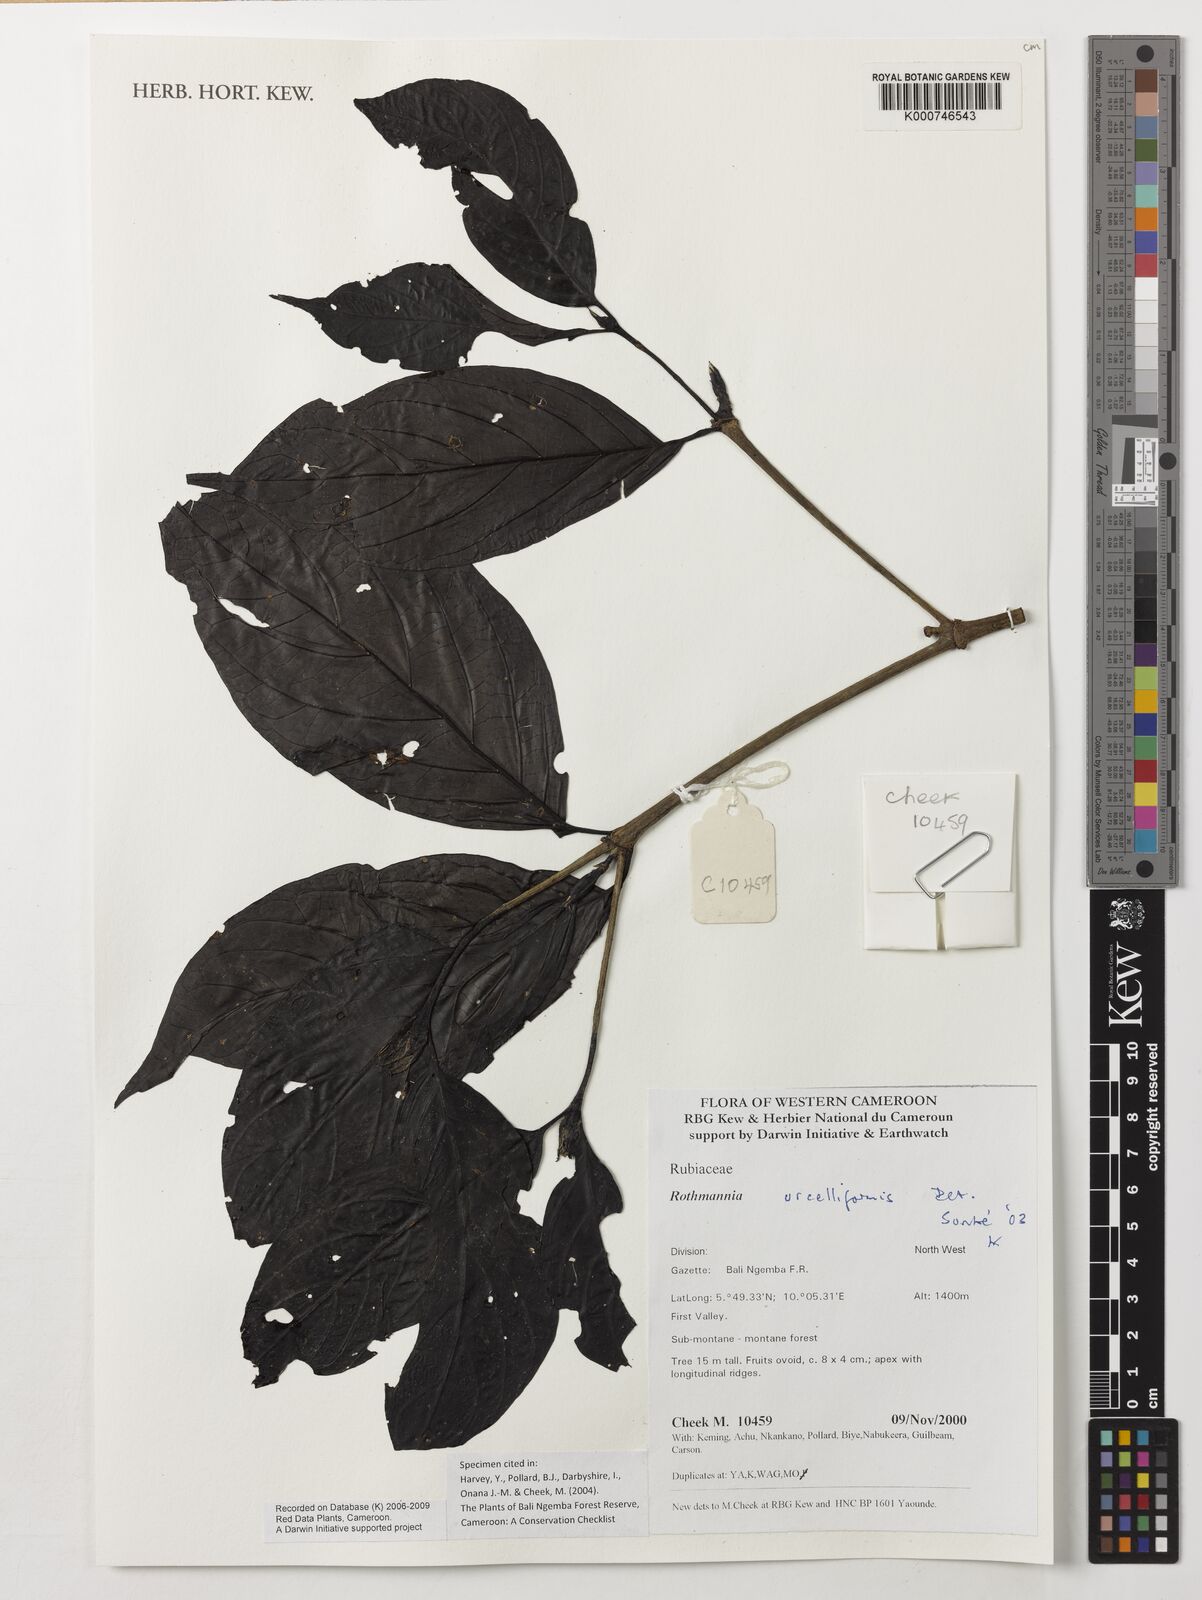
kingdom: Plantae
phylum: Tracheophyta
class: Magnoliopsida
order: Gentianales
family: Rubiaceae
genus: Rothmannia
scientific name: Rothmannia urcelliformis
